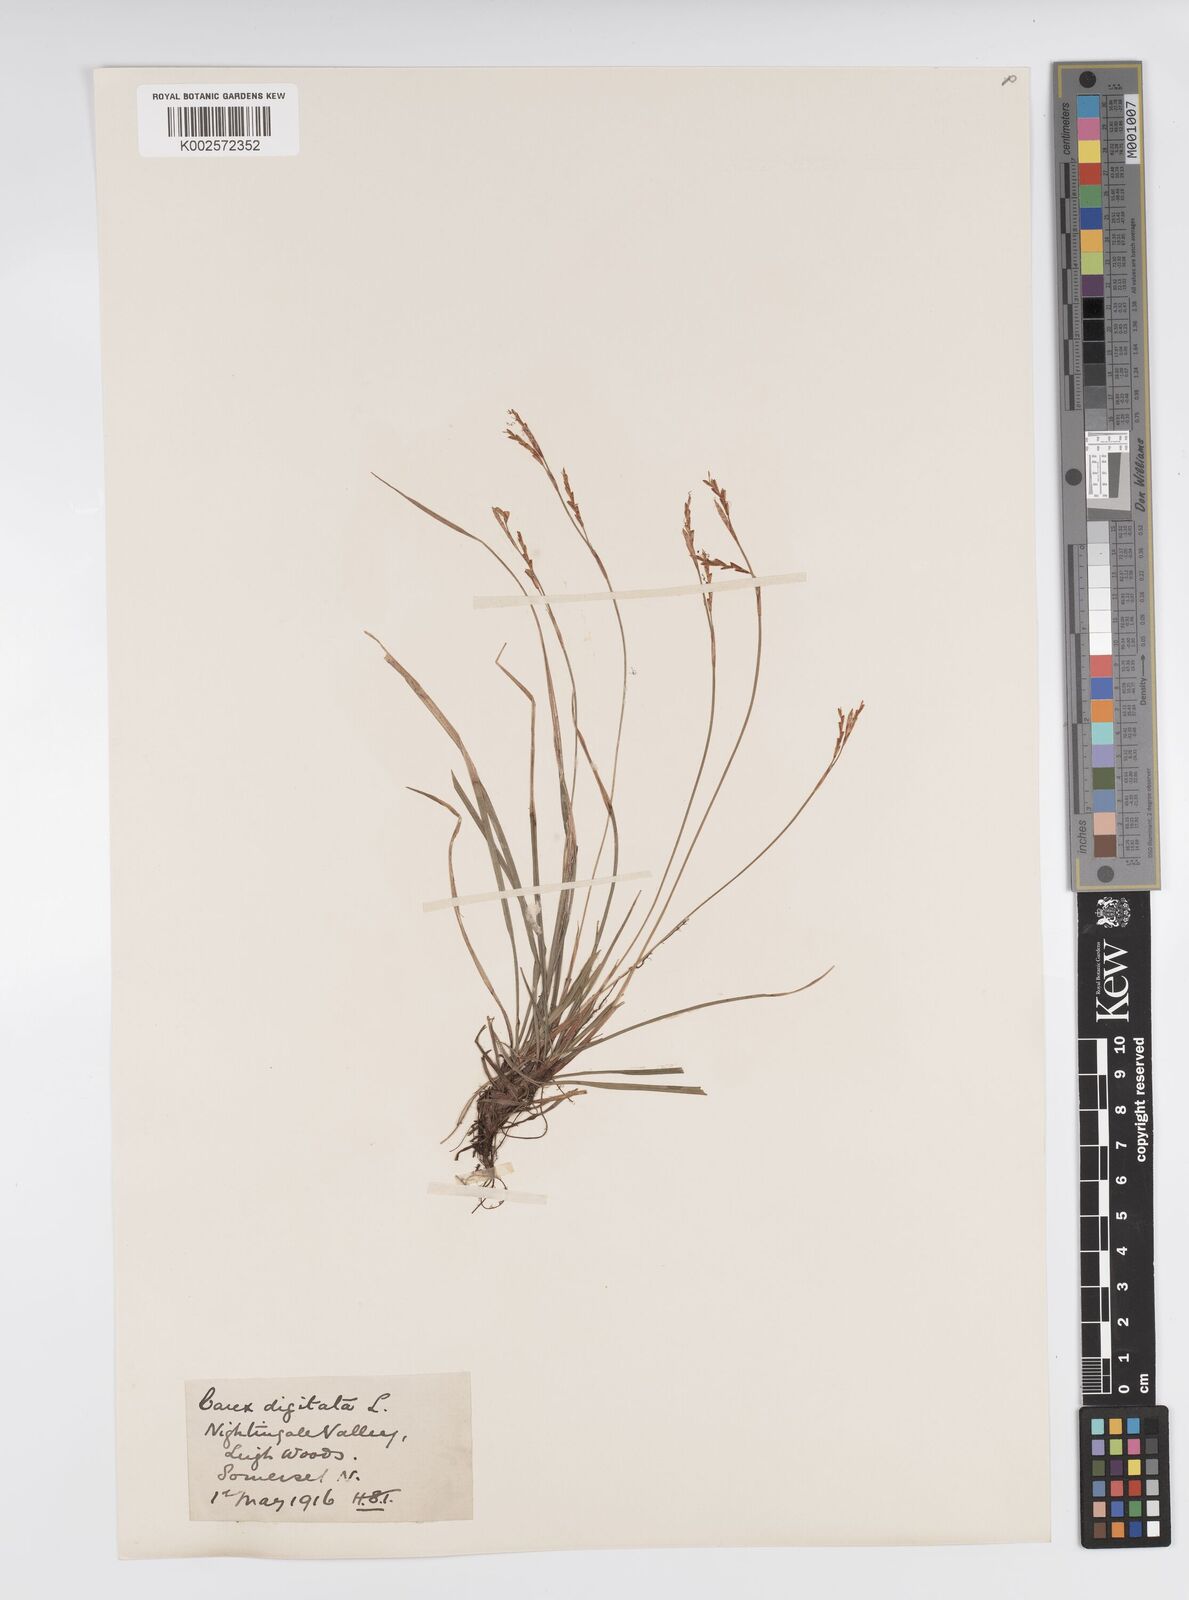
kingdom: Plantae
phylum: Tracheophyta
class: Liliopsida
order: Poales
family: Cyperaceae
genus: Carex
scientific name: Carex digitata
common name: Fingered sedge
